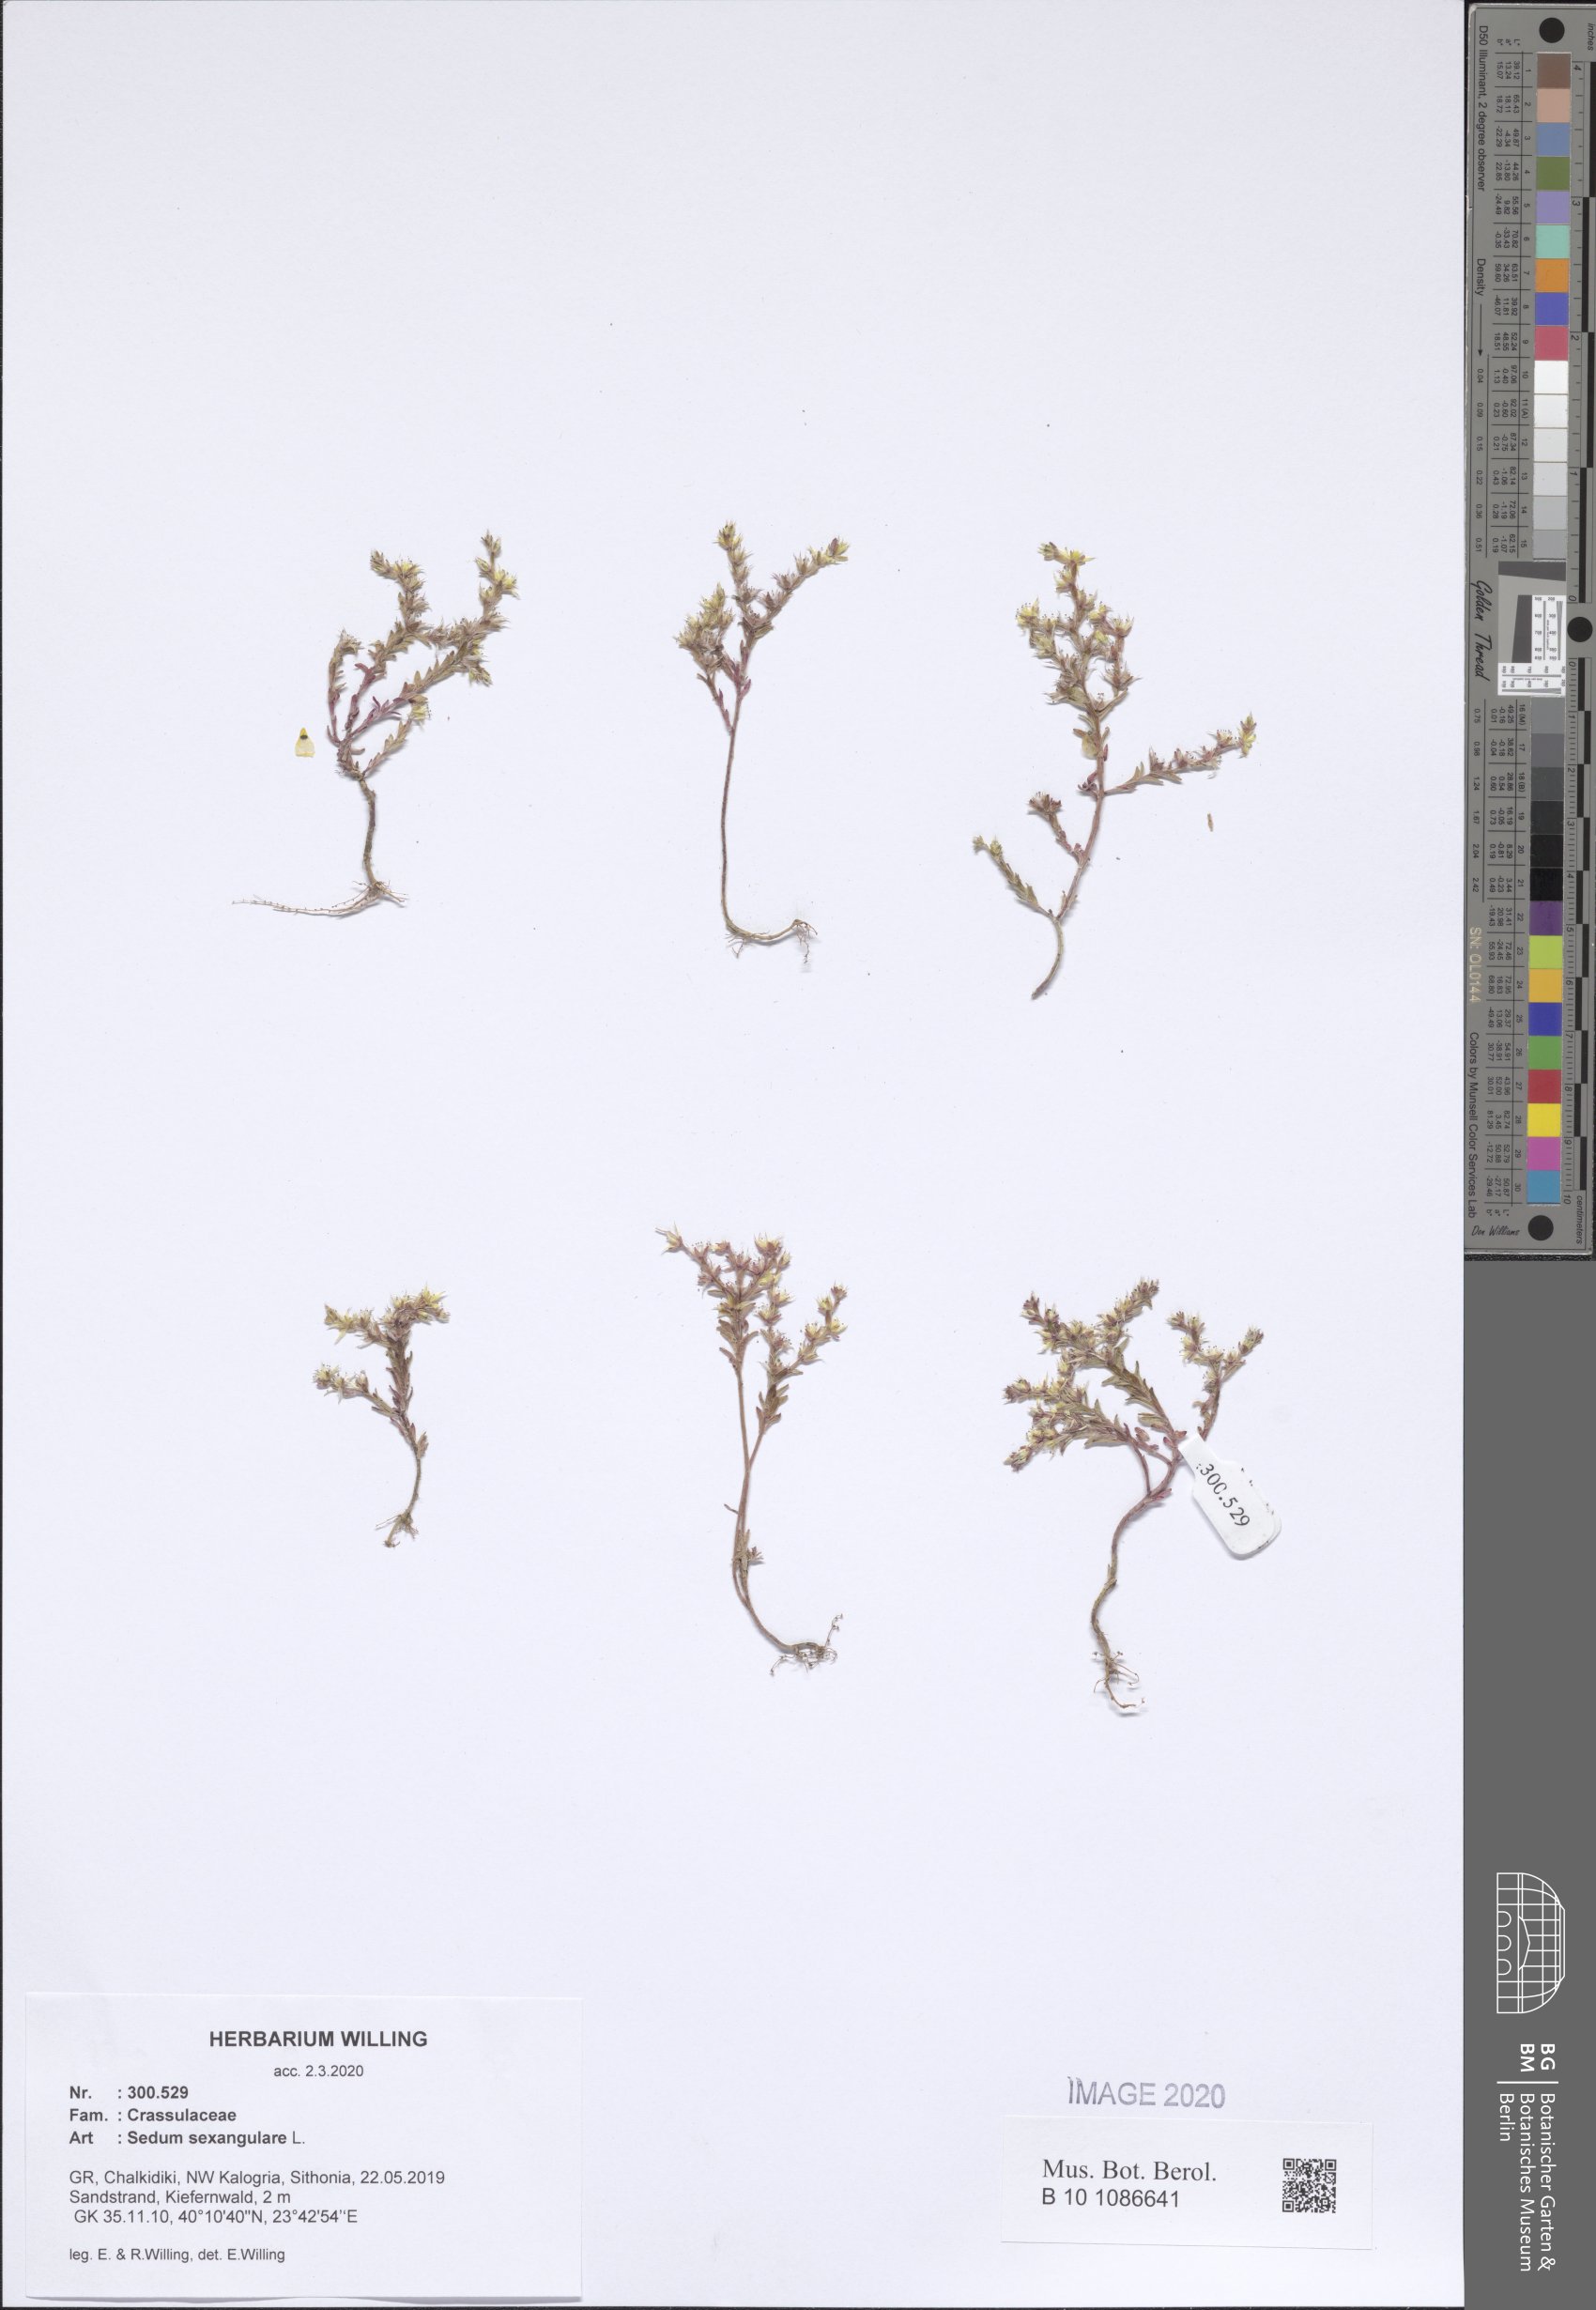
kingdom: Plantae
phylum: Tracheophyta
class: Magnoliopsida
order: Saxifragales
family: Crassulaceae
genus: Sedum
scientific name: Sedum sexangulare
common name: Tasteless stonecrop
